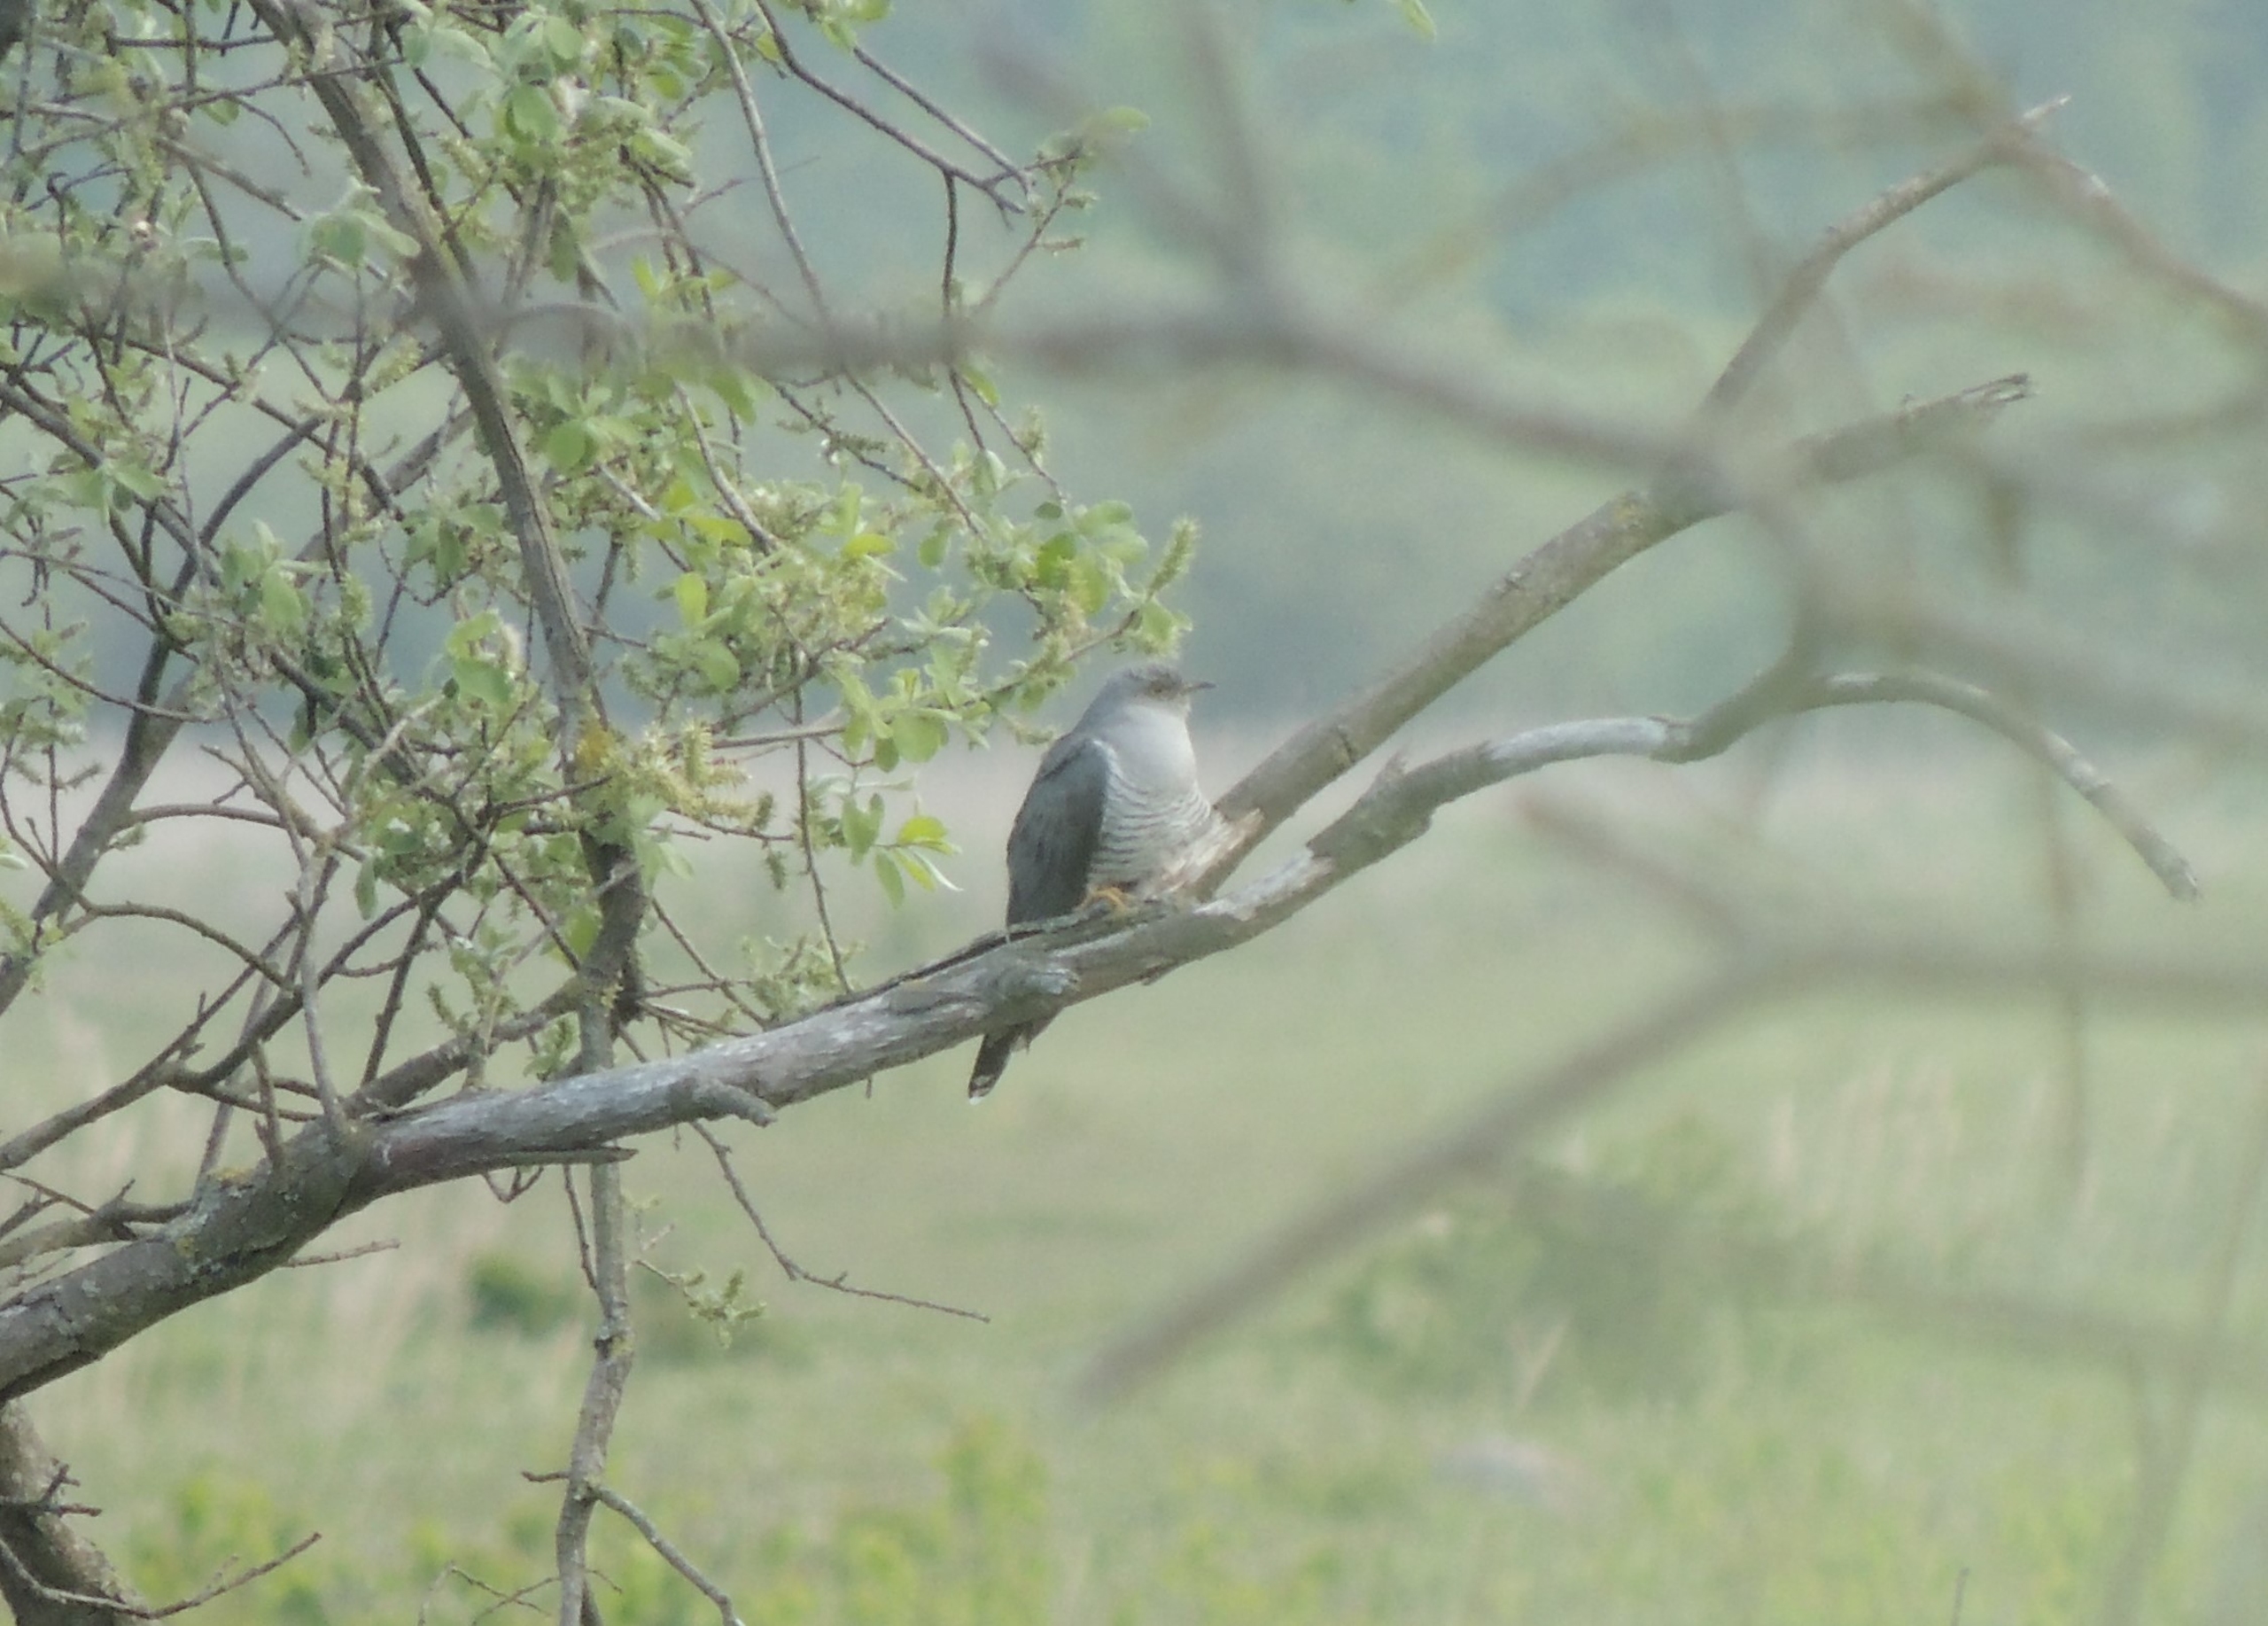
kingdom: Animalia
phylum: Chordata
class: Aves
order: Cuculiformes
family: Cuculidae
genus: Cuculus
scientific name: Cuculus canorus
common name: Gøg
